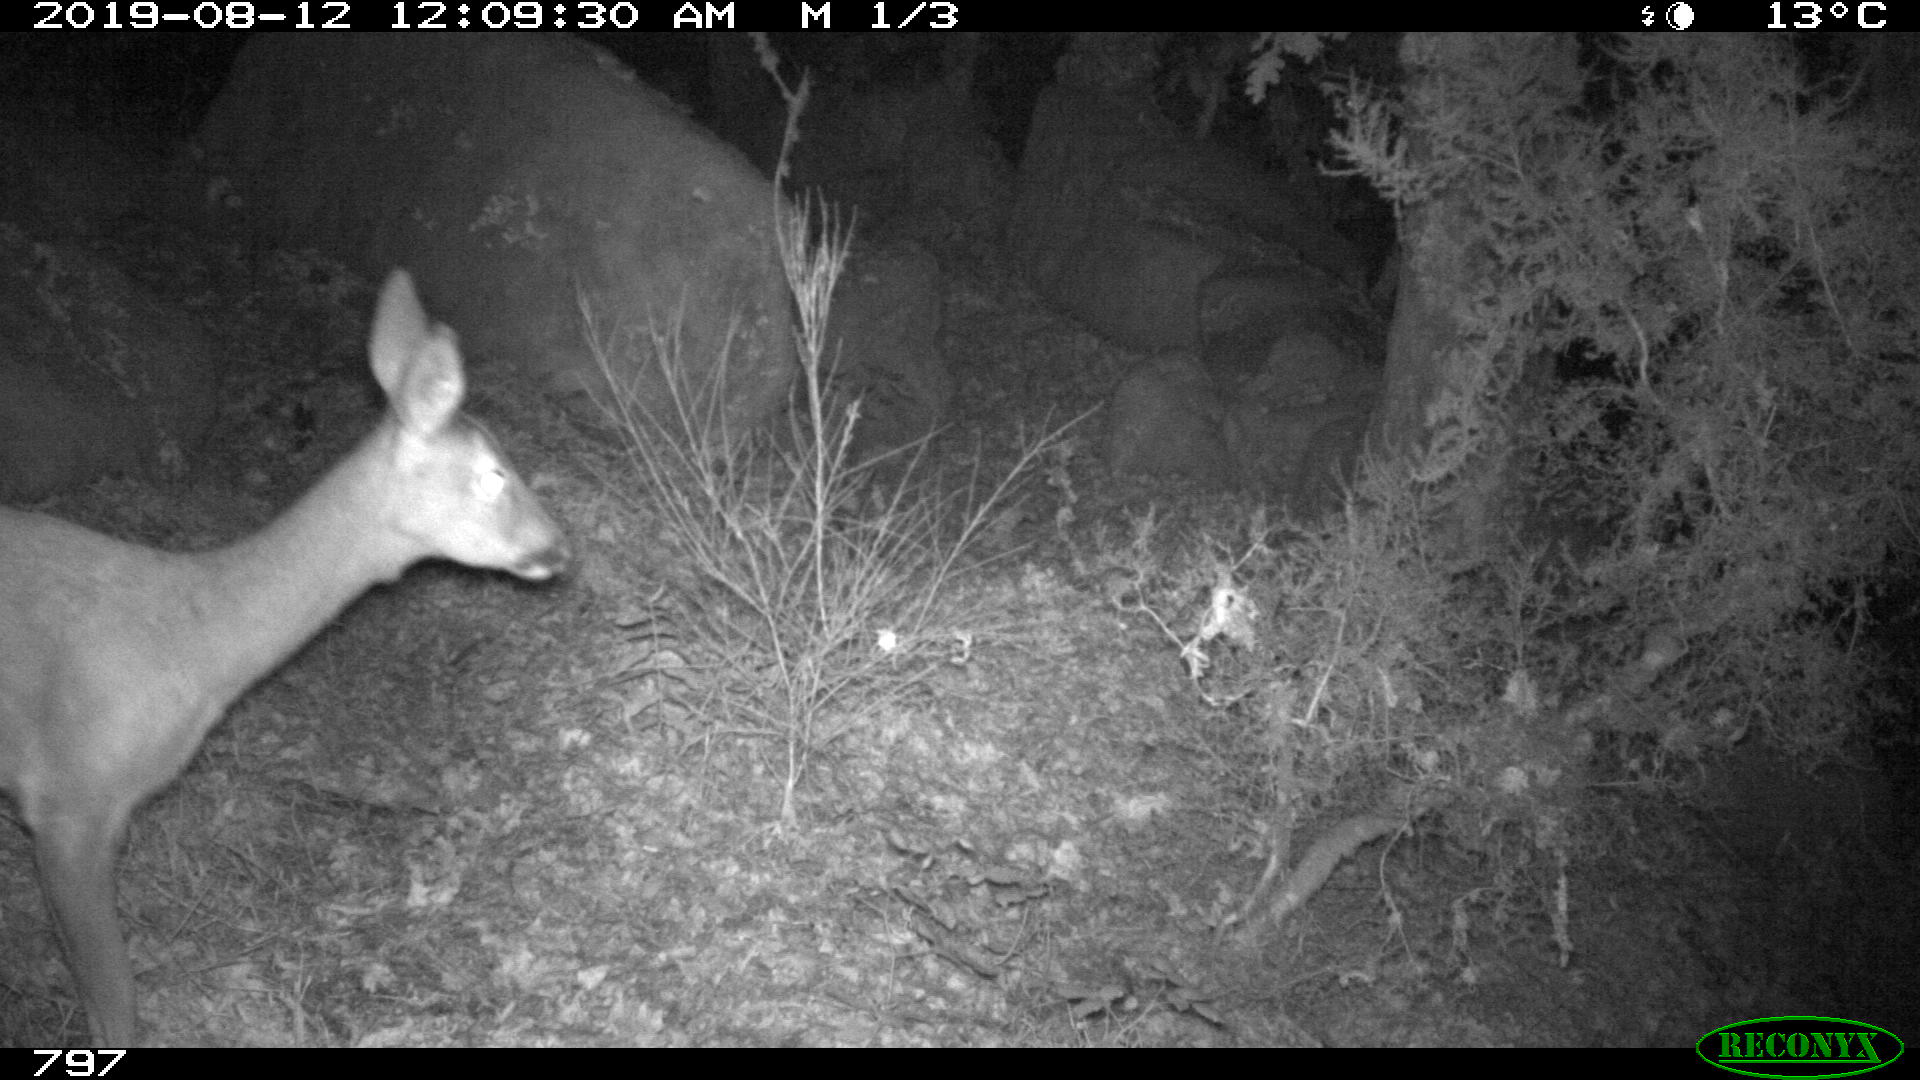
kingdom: Animalia
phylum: Chordata
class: Mammalia
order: Artiodactyla
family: Cervidae
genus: Capreolus
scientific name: Capreolus capreolus
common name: Western roe deer
